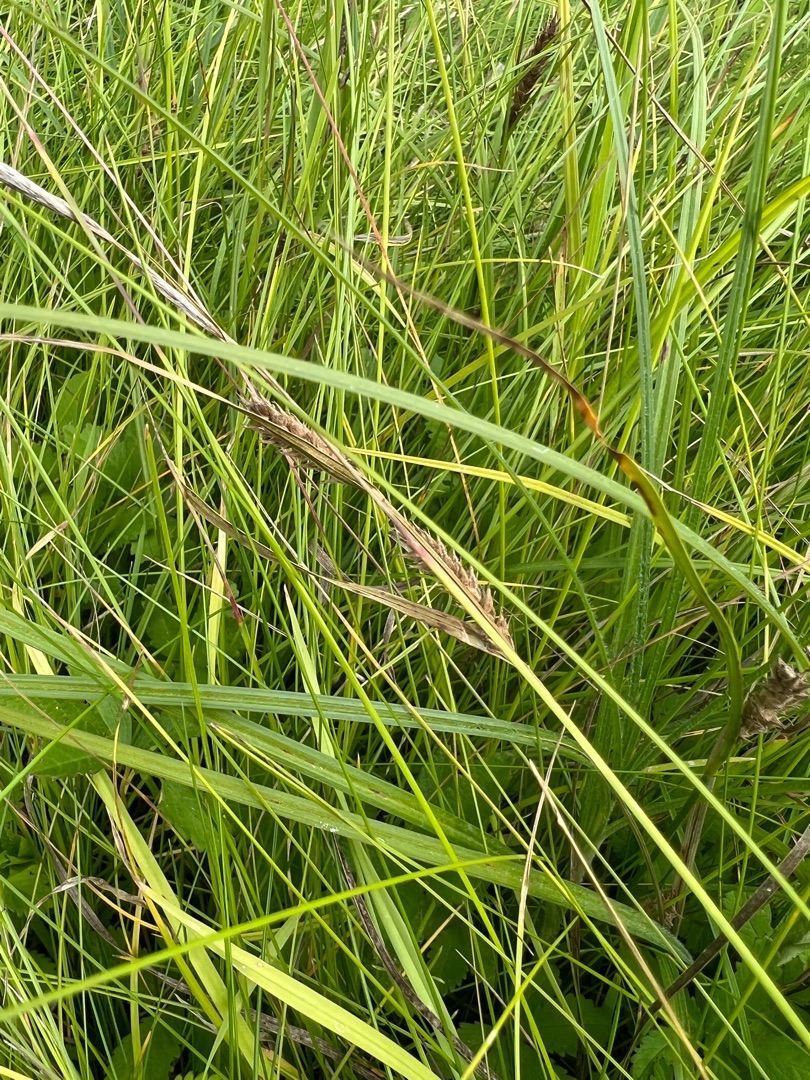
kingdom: Plantae
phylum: Tracheophyta
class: Liliopsida
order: Poales
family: Cyperaceae
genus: Carex
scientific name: Carex hirta
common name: Håret star
